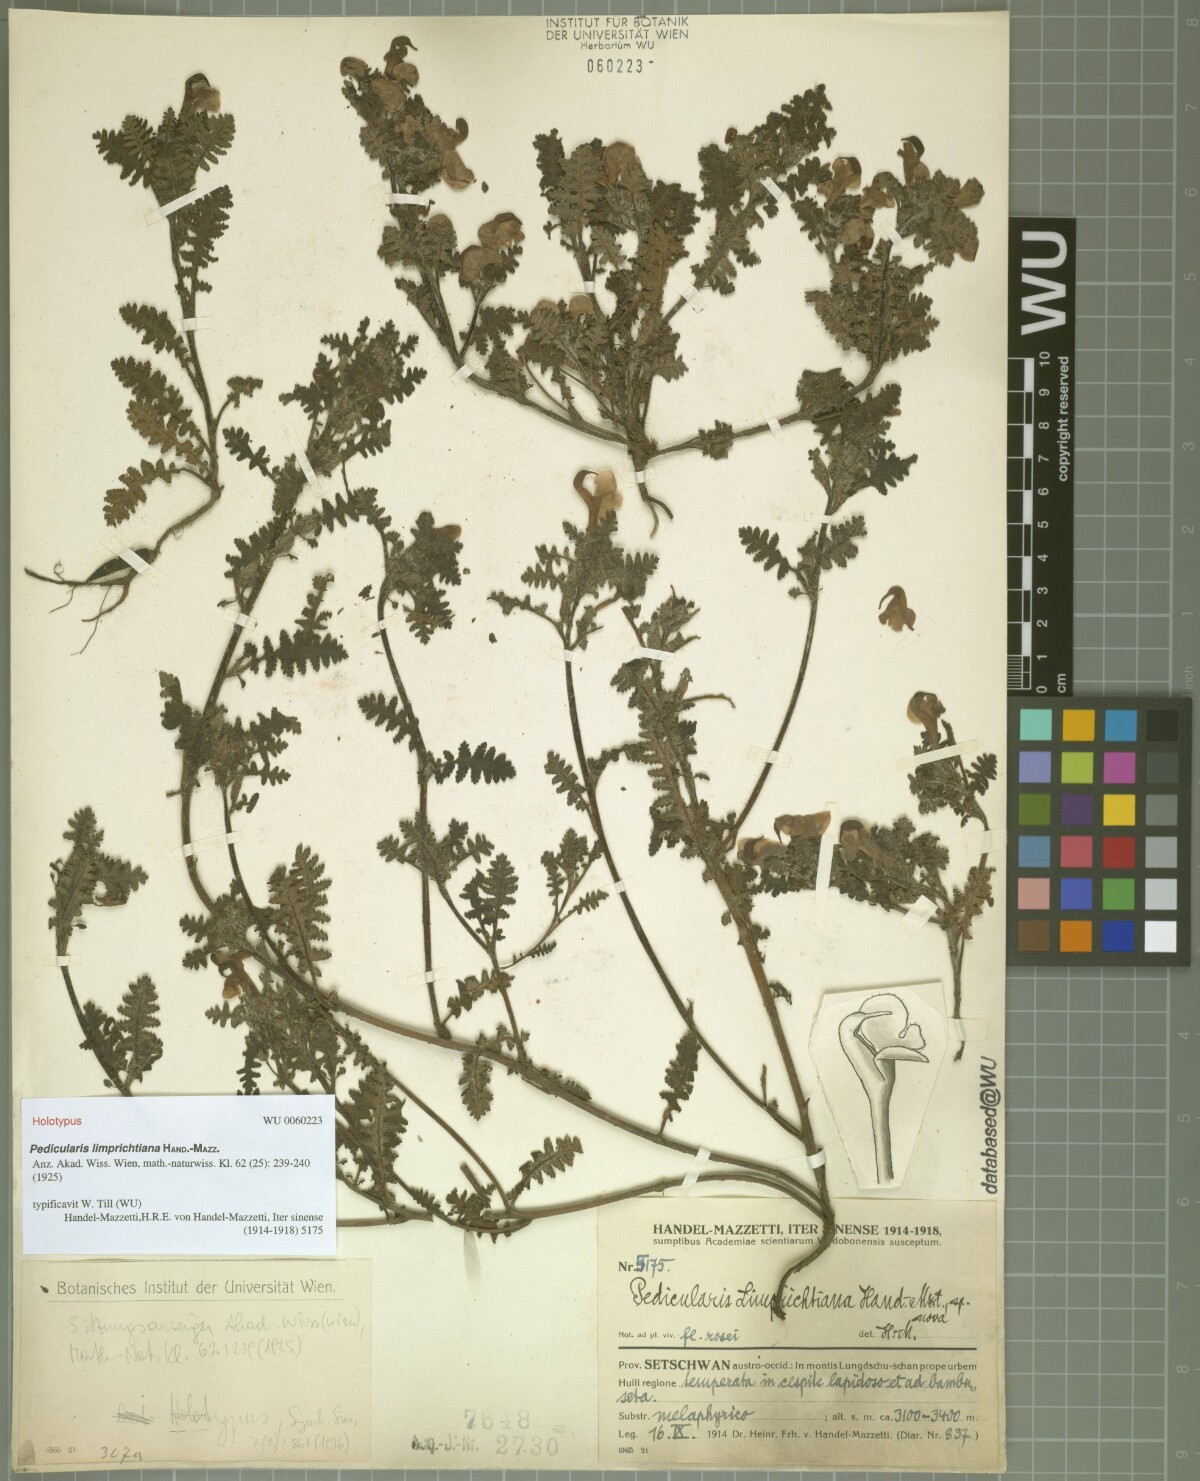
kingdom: Plantae
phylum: Tracheophyta
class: Magnoliopsida
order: Lamiales
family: Orobanchaceae
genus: Pedicularis
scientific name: Pedicularis limprichtiana
